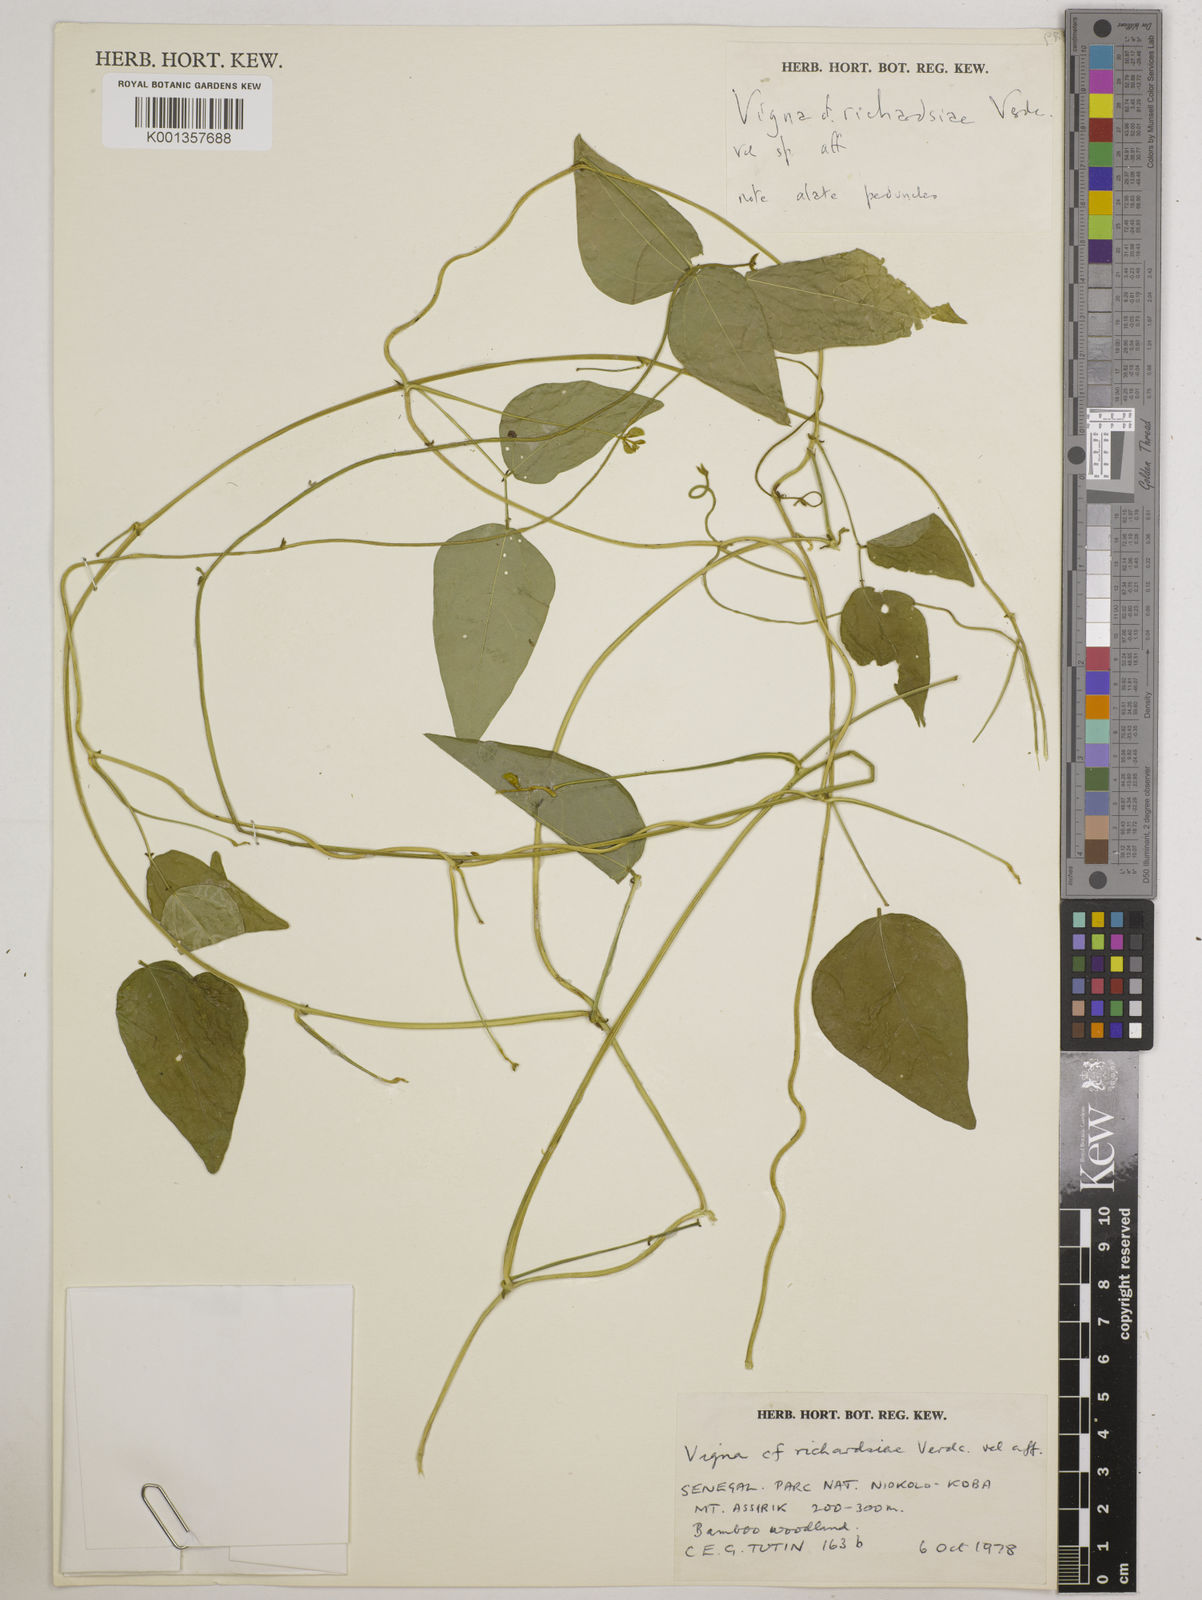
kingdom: Plantae
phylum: Tracheophyta
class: Magnoliopsida
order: Fabales
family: Fabaceae
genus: Vigna
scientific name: Vigna richardsiae
